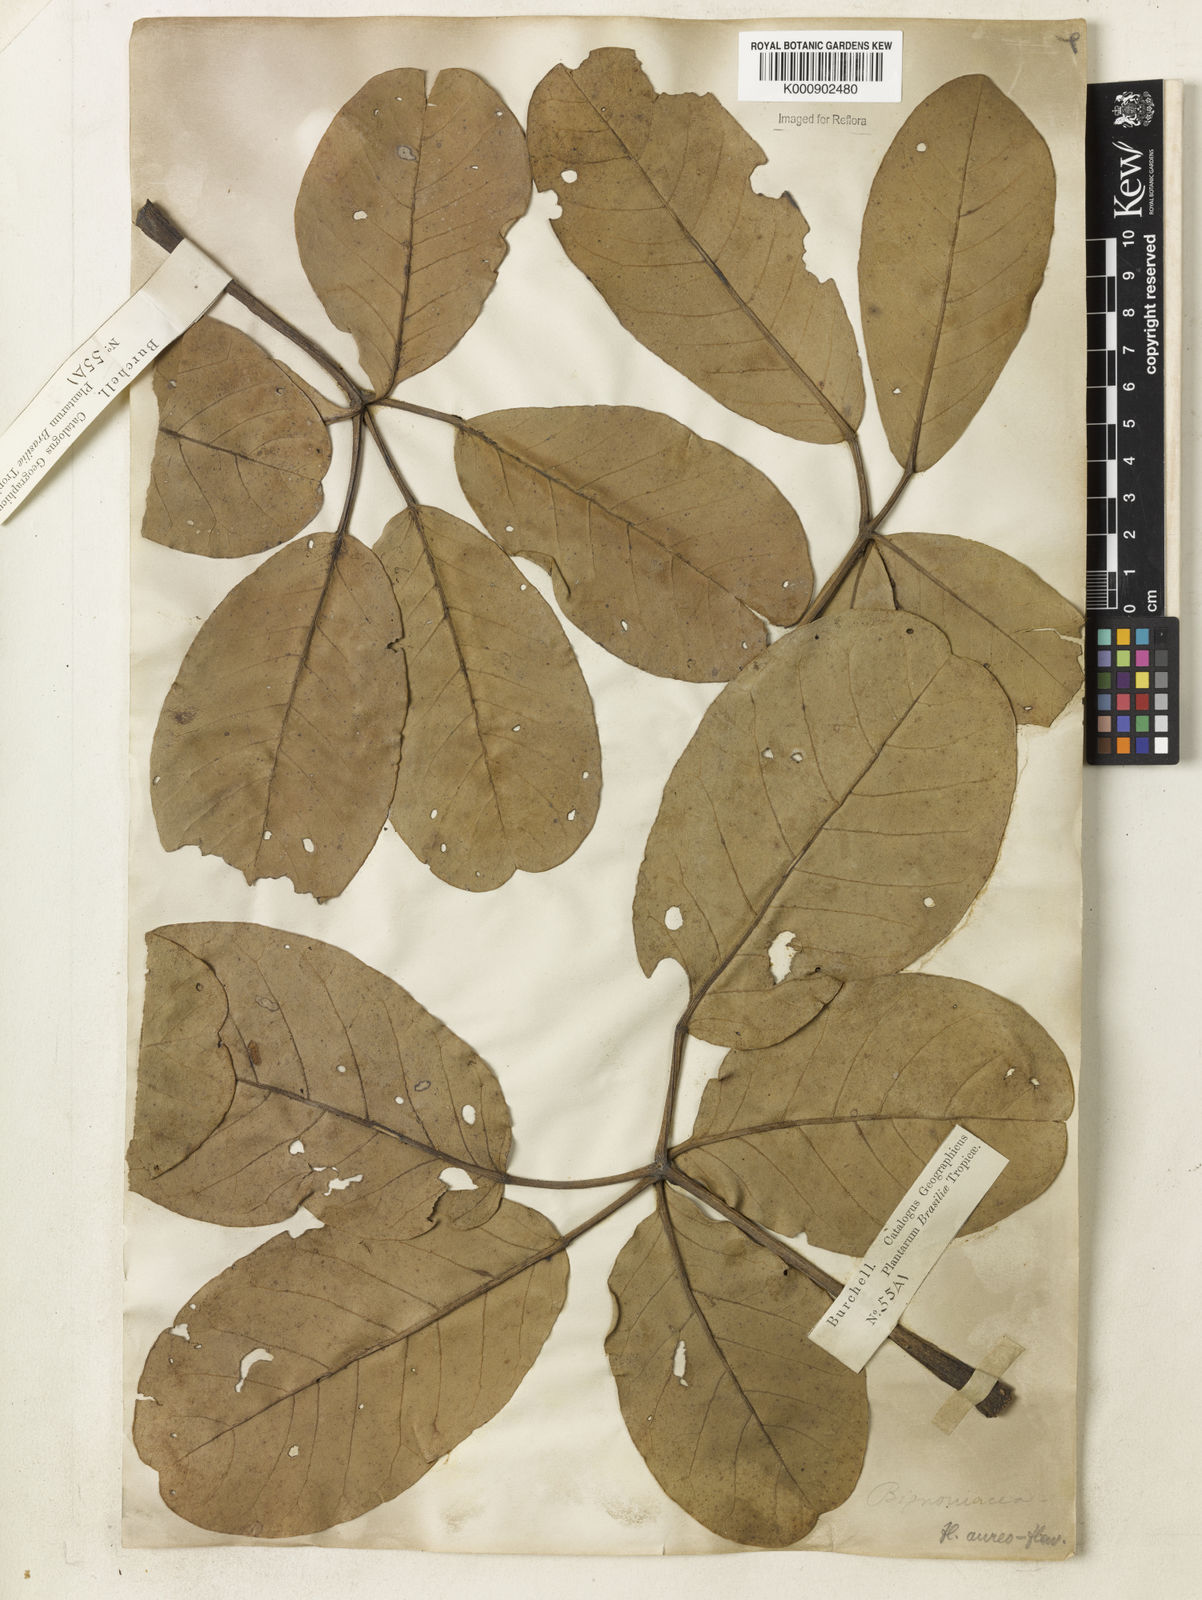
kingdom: Plantae
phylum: Tracheophyta
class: Magnoliopsida
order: Lamiales
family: Bignoniaceae
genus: Tabebuia
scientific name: Tabebuia aurea
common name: Caribbean trumpet-tree
